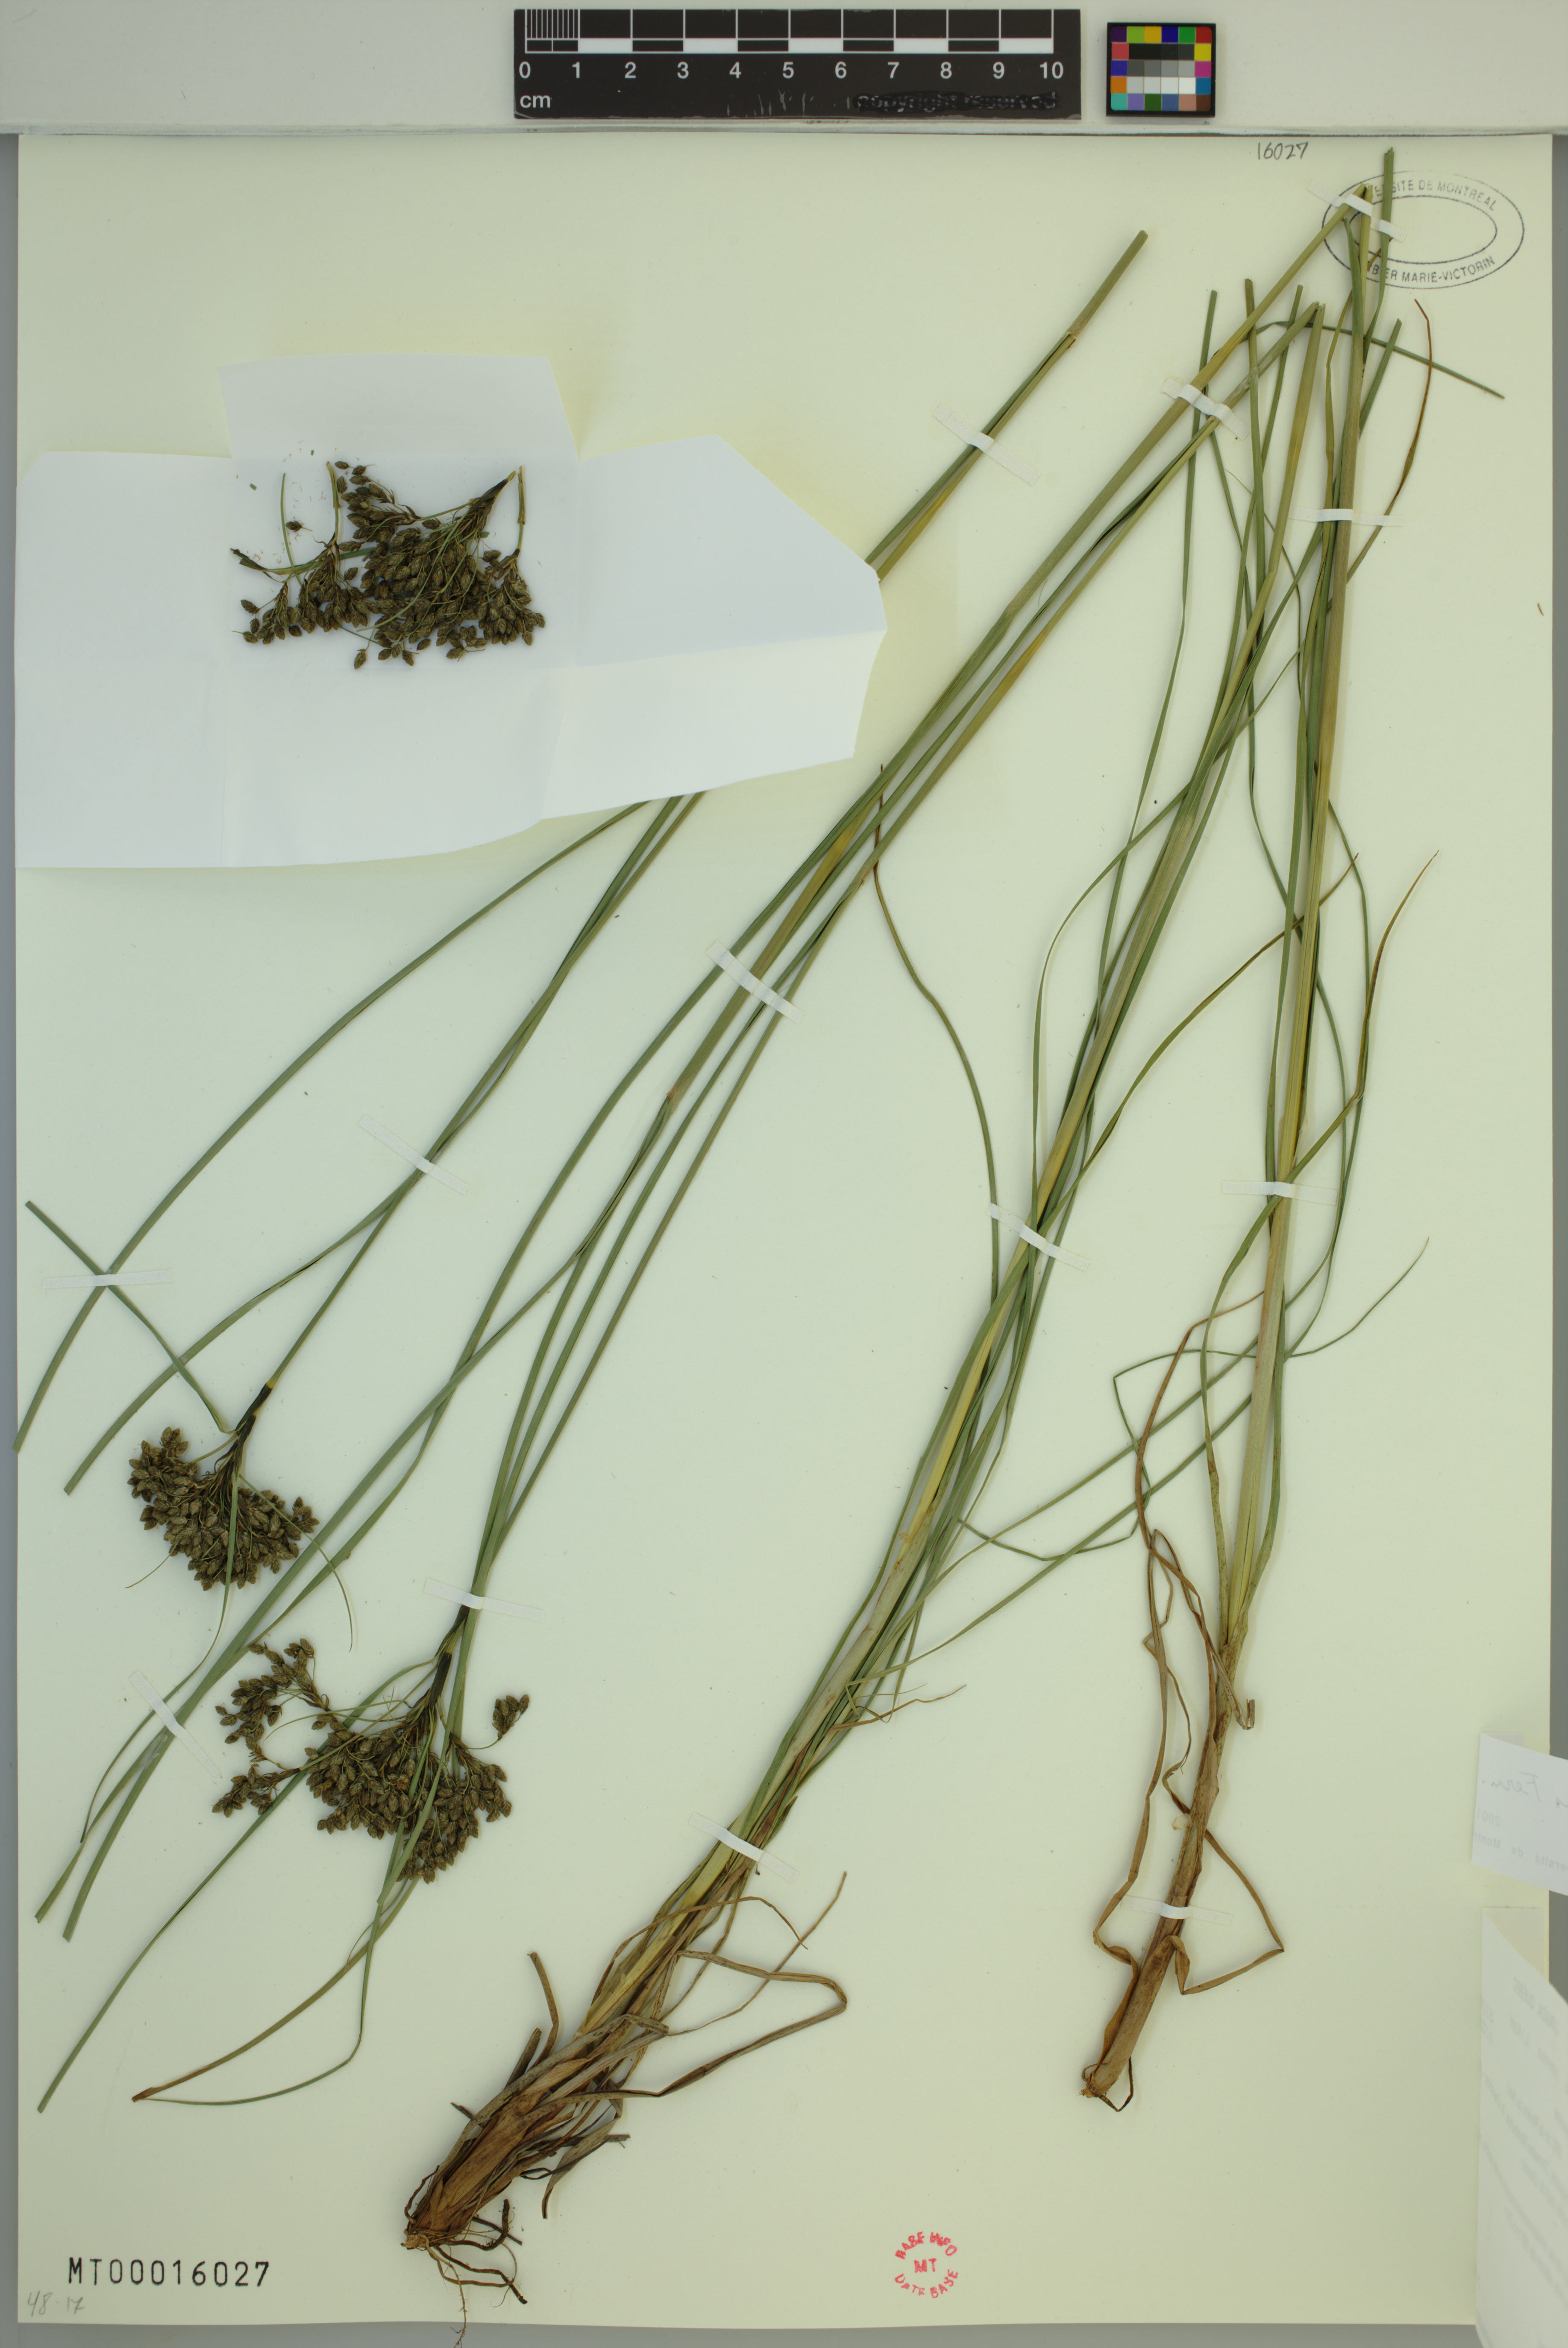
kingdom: Plantae
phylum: Tracheophyta
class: Liliopsida
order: Poales
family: Cyperaceae
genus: Scirpus
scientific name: Scirpus atrocinctus
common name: Black-girdled bulrush
